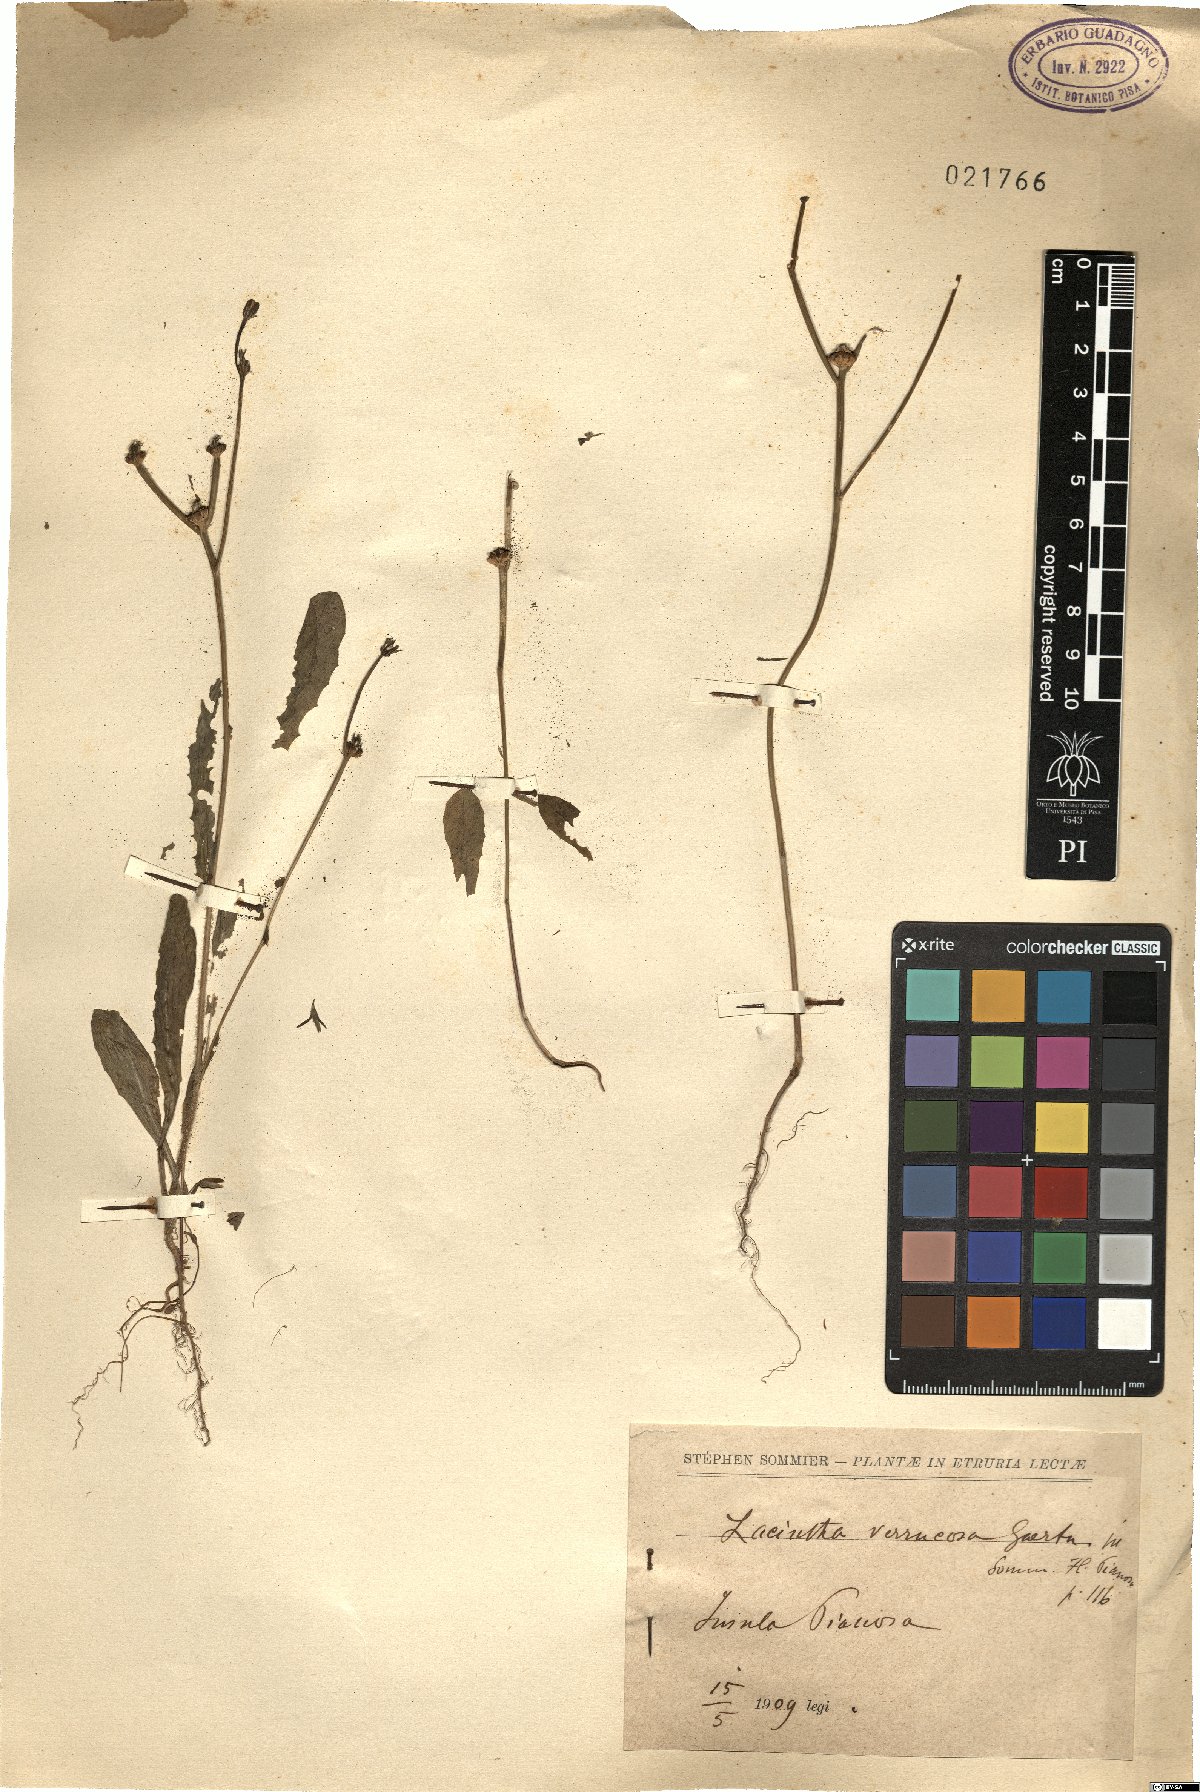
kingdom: Plantae
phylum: Tracheophyta
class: Magnoliopsida
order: Asterales
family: Asteraceae
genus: Crepis
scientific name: Crepis zacintha
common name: Striped hawksbeard
